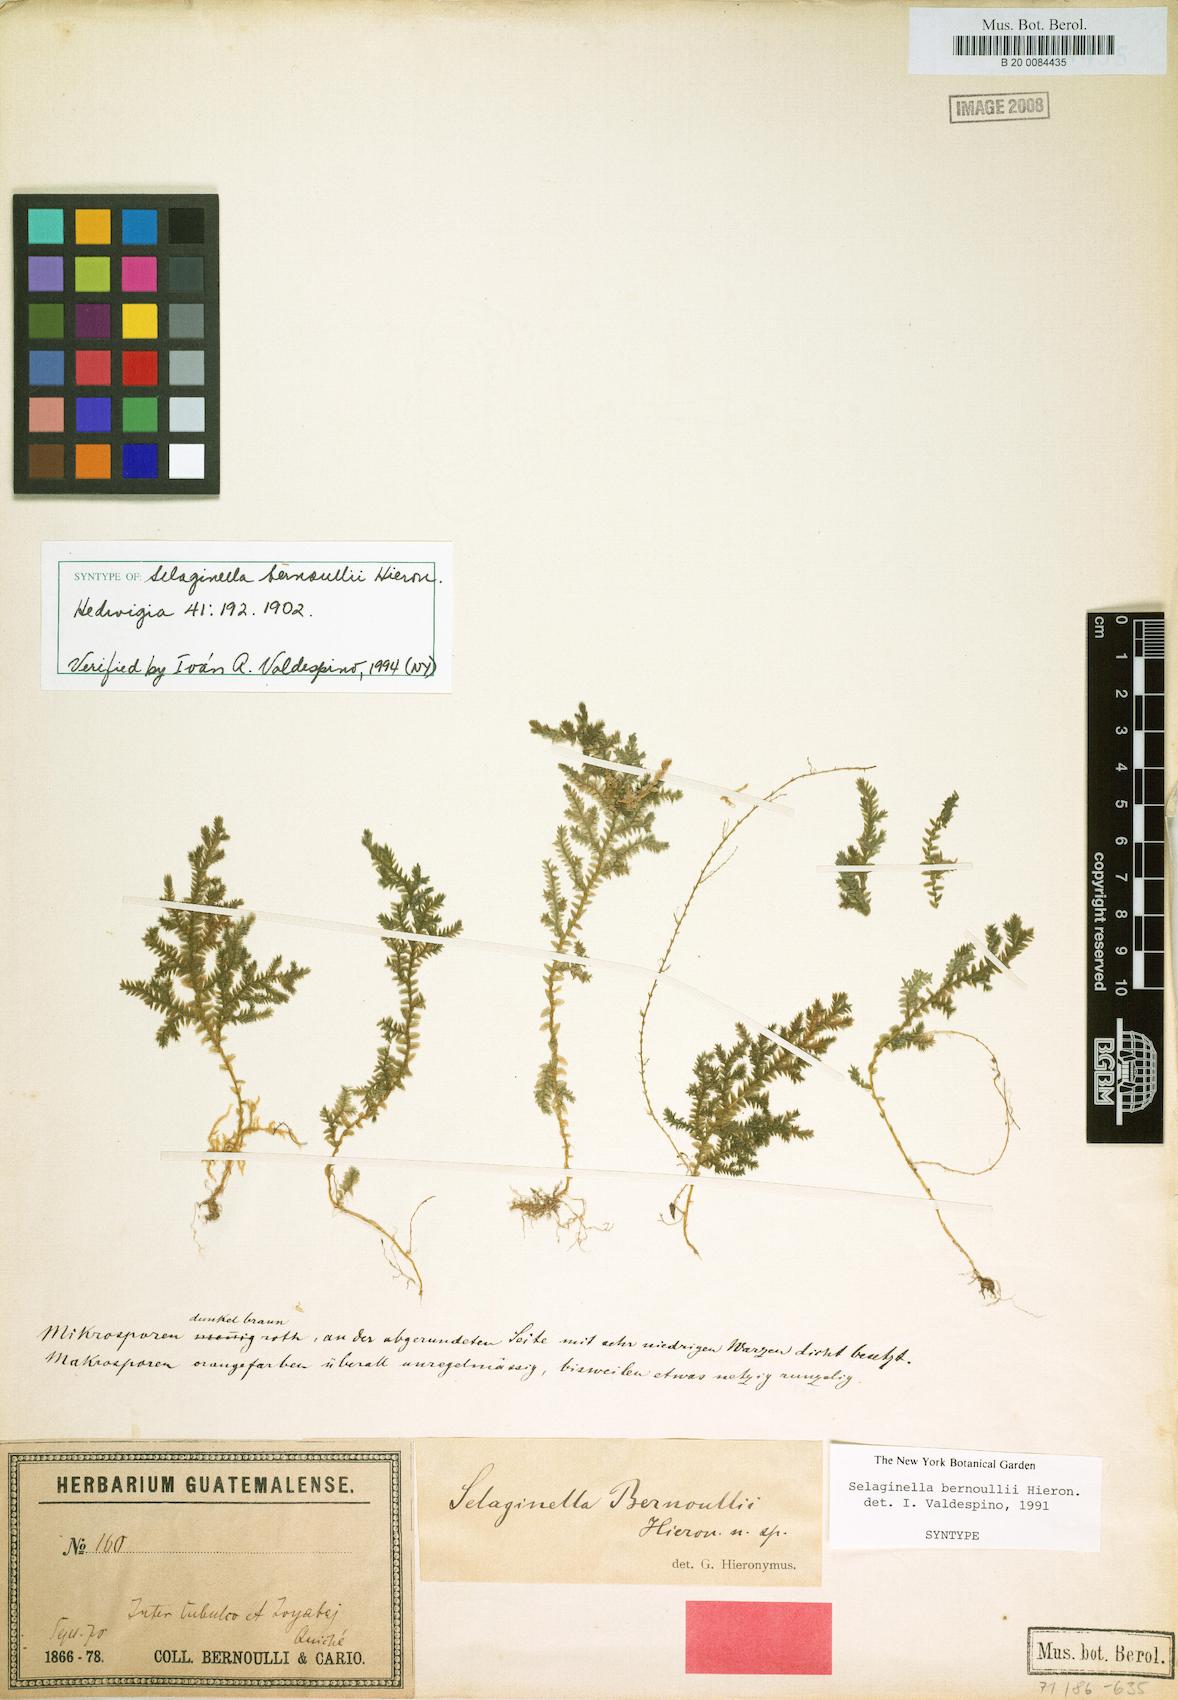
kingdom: Plantae
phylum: Tracheophyta
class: Lycopodiopsida
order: Selaginellales
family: Selaginellaceae
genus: Selaginella
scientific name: Selaginella bernoullii
